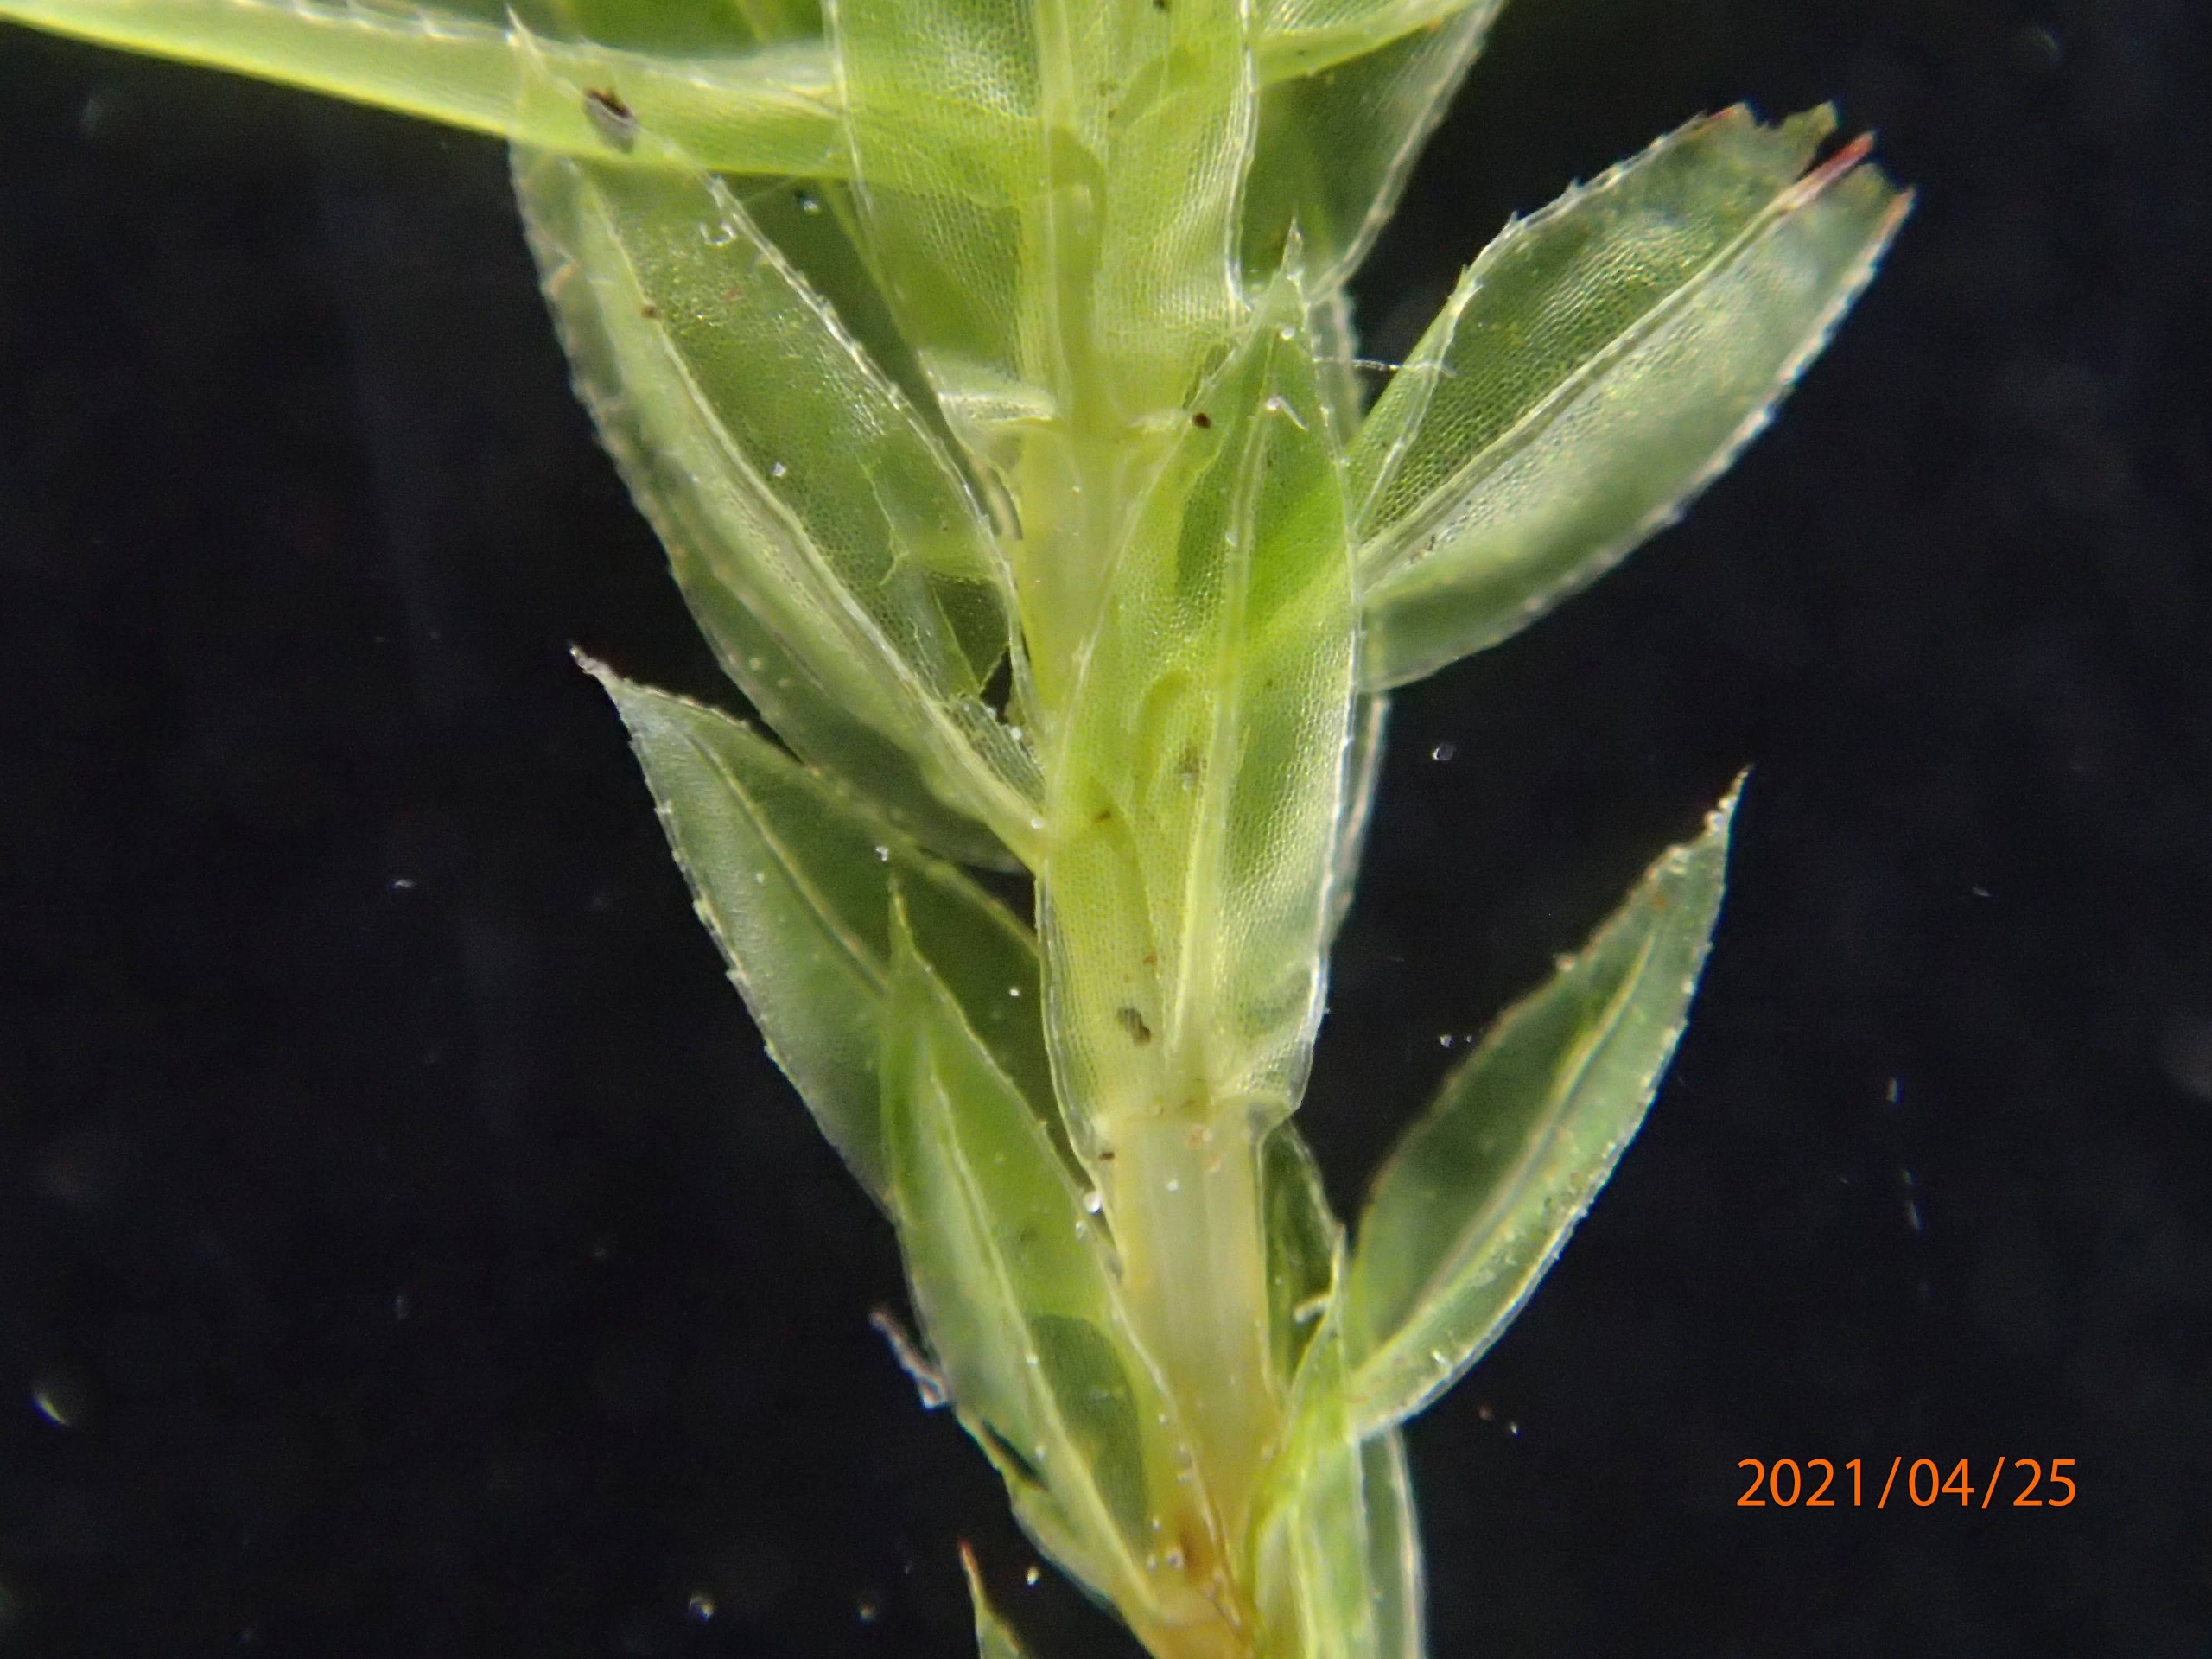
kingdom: Plantae
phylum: Bryophyta
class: Bryopsida
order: Bryales
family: Mniaceae
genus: Mnium
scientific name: Mnium hornum
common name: Brunfiltet stjernemos
